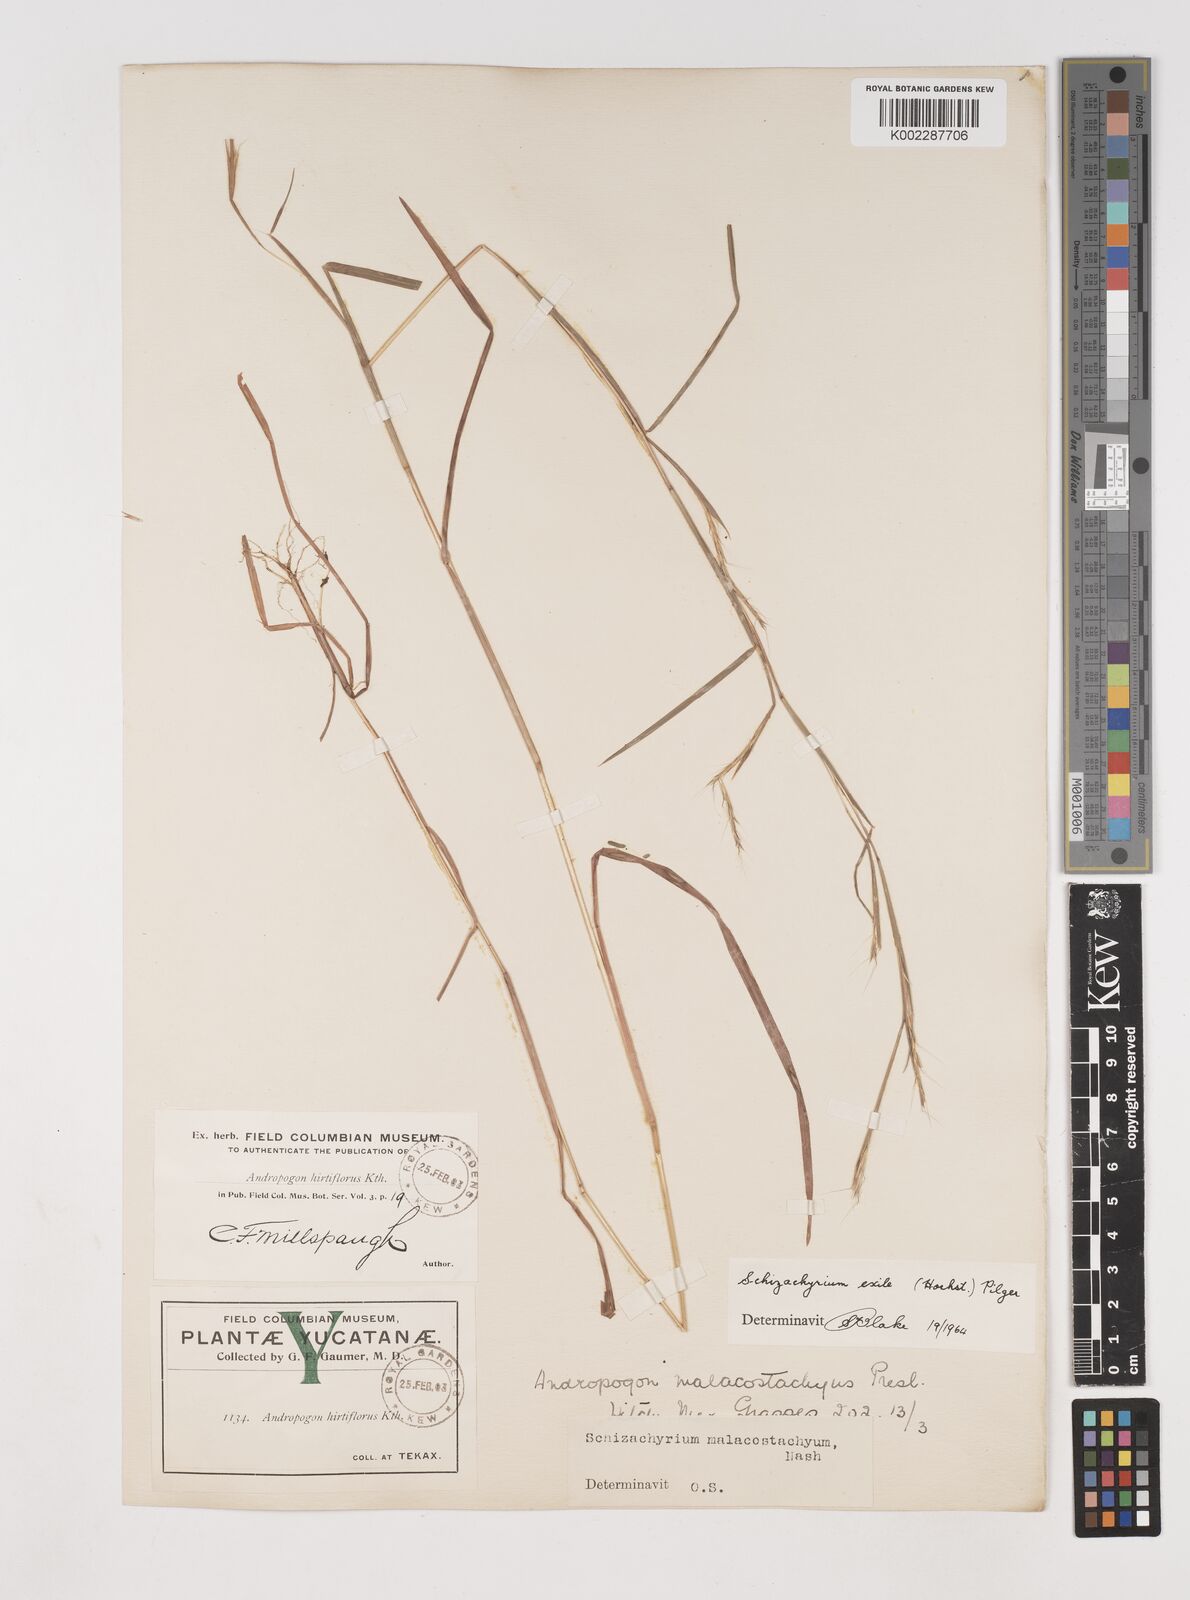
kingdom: Plantae
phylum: Tracheophyta
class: Liliopsida
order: Poales
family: Poaceae
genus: Schizachyrium
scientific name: Schizachyrium exile
